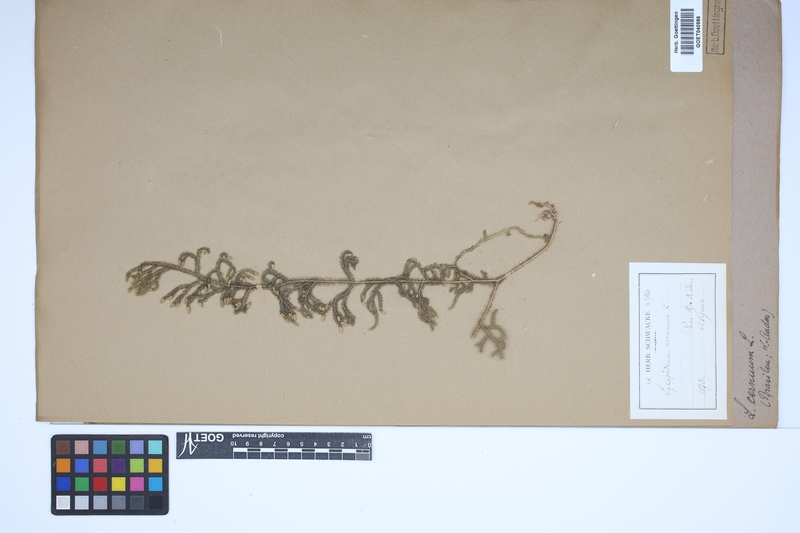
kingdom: Plantae
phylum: Tracheophyta
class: Lycopodiopsida
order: Lycopodiales
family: Lycopodiaceae
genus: Palhinhaea
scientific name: Palhinhaea cernua
